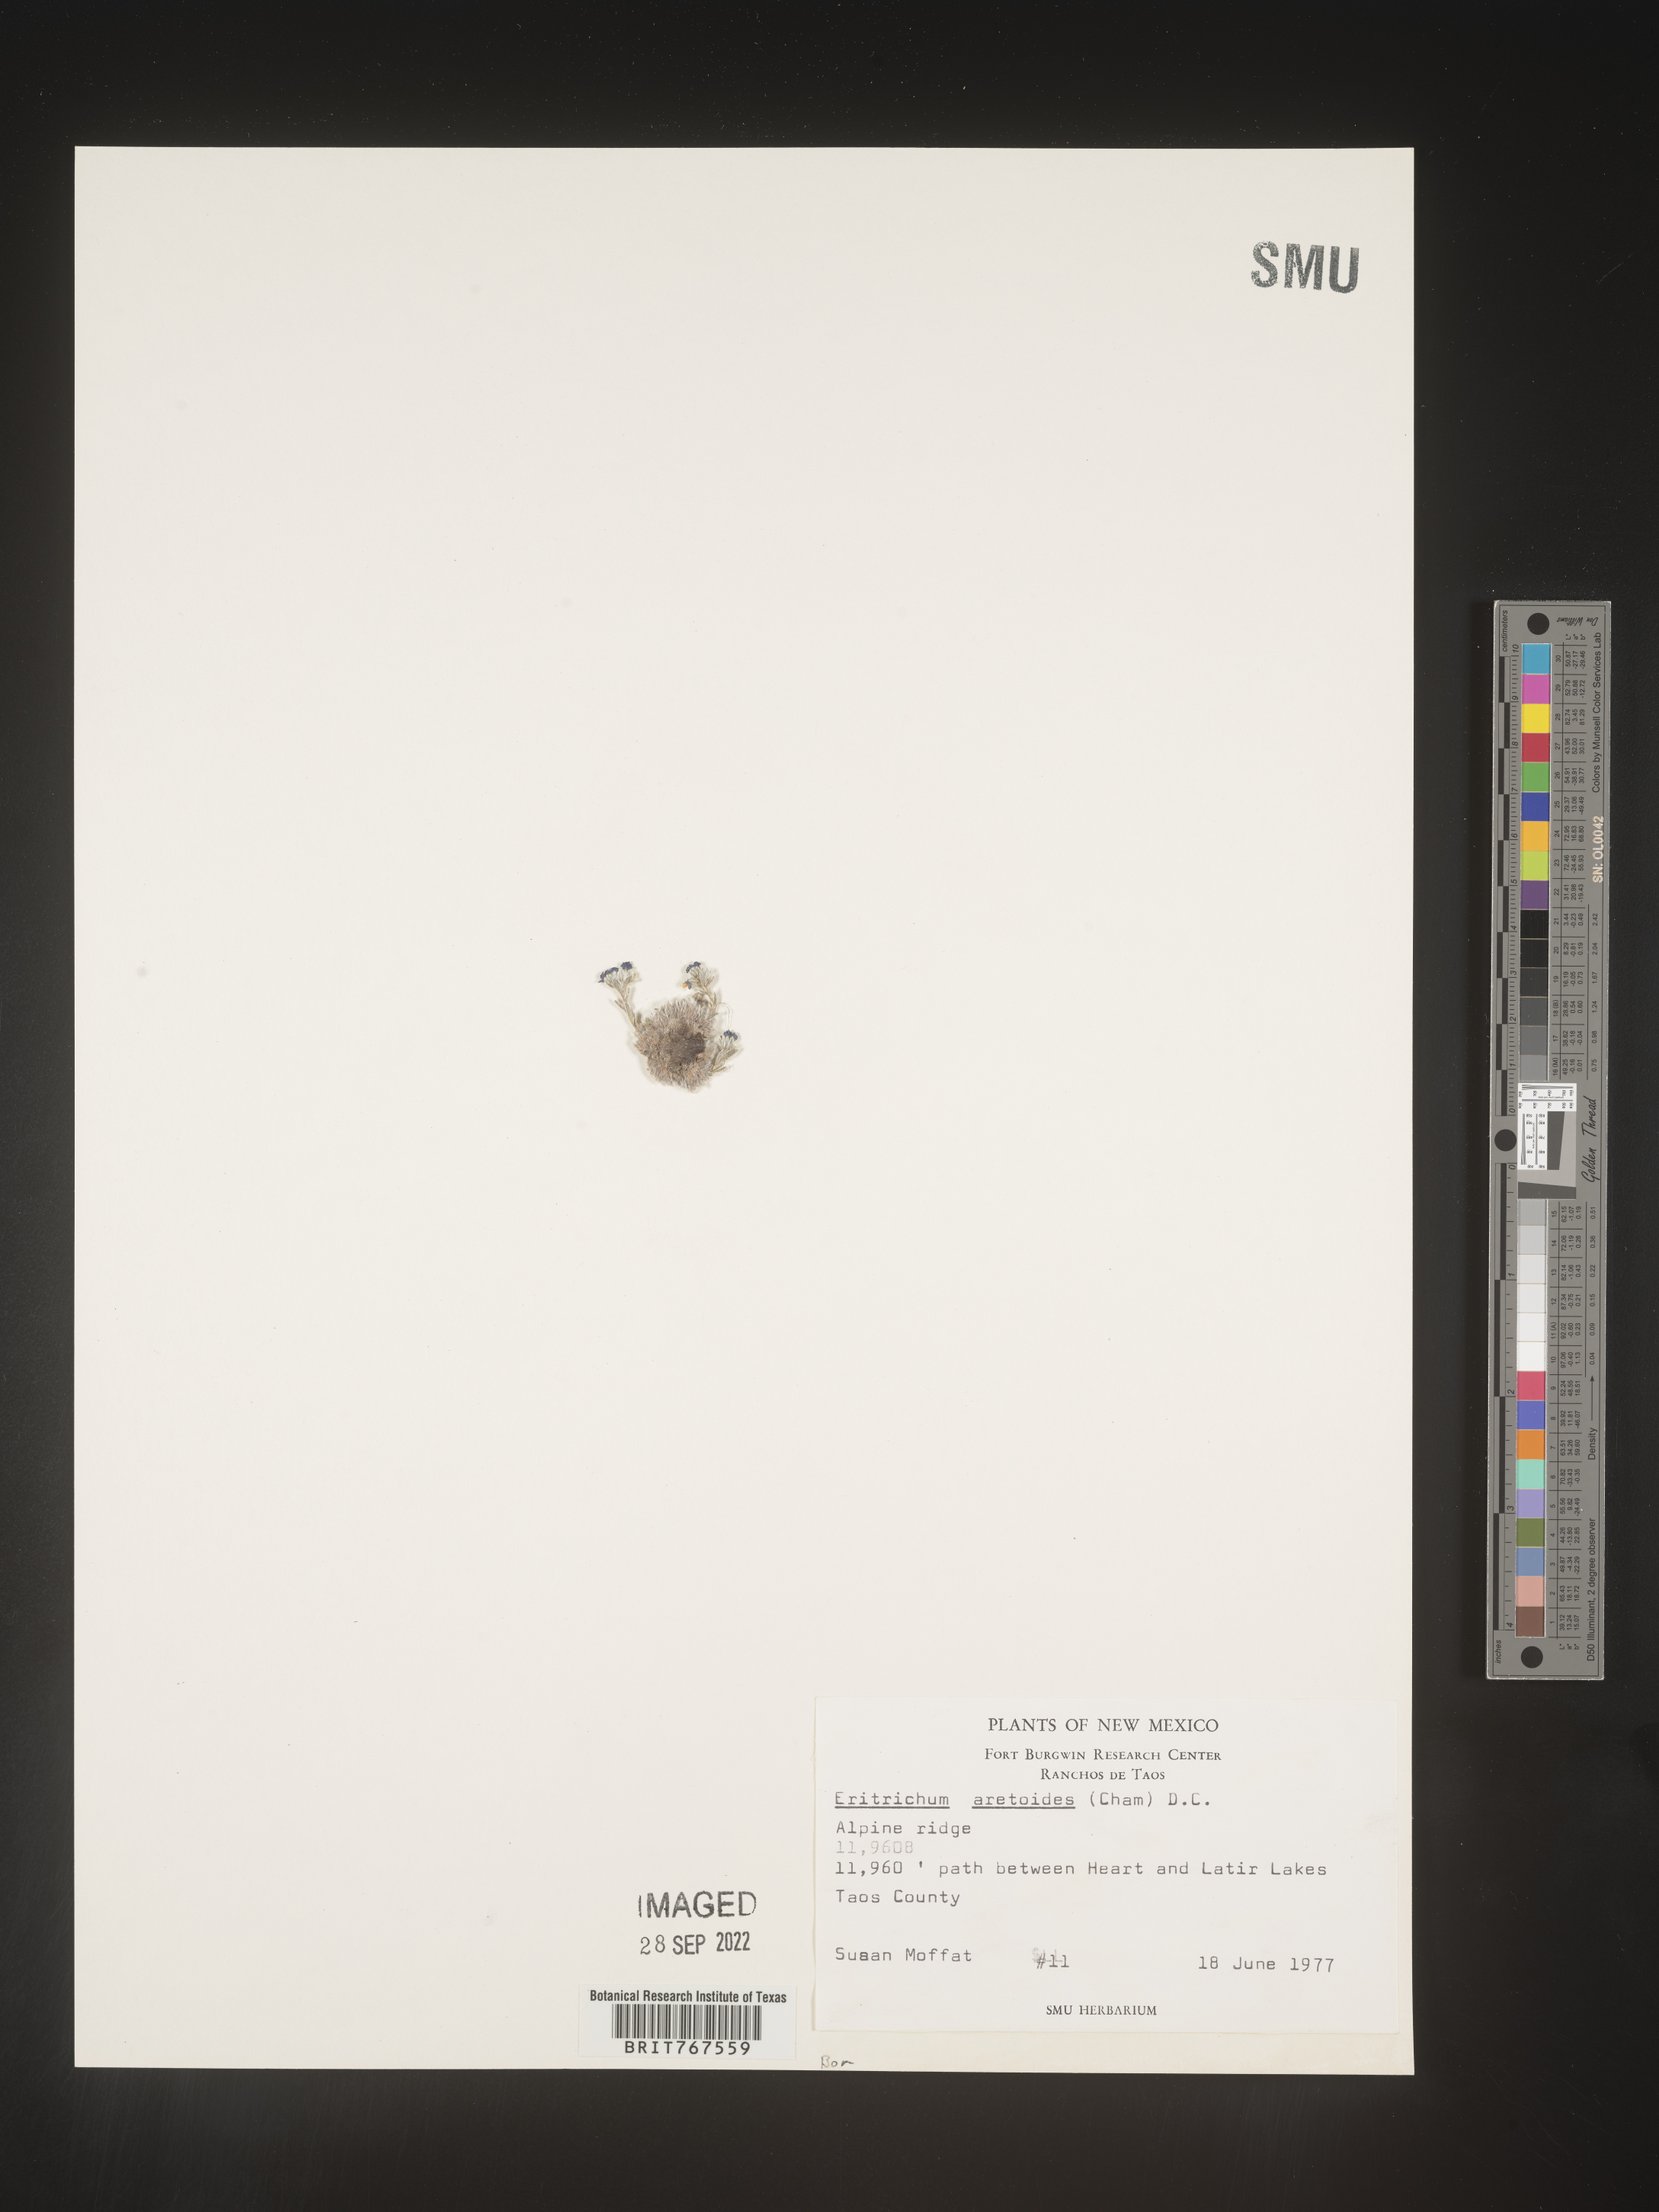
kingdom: Plantae
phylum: Tracheophyta
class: Magnoliopsida
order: Boraginales
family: Boraginaceae
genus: Eritrichium
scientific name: Eritrichium
